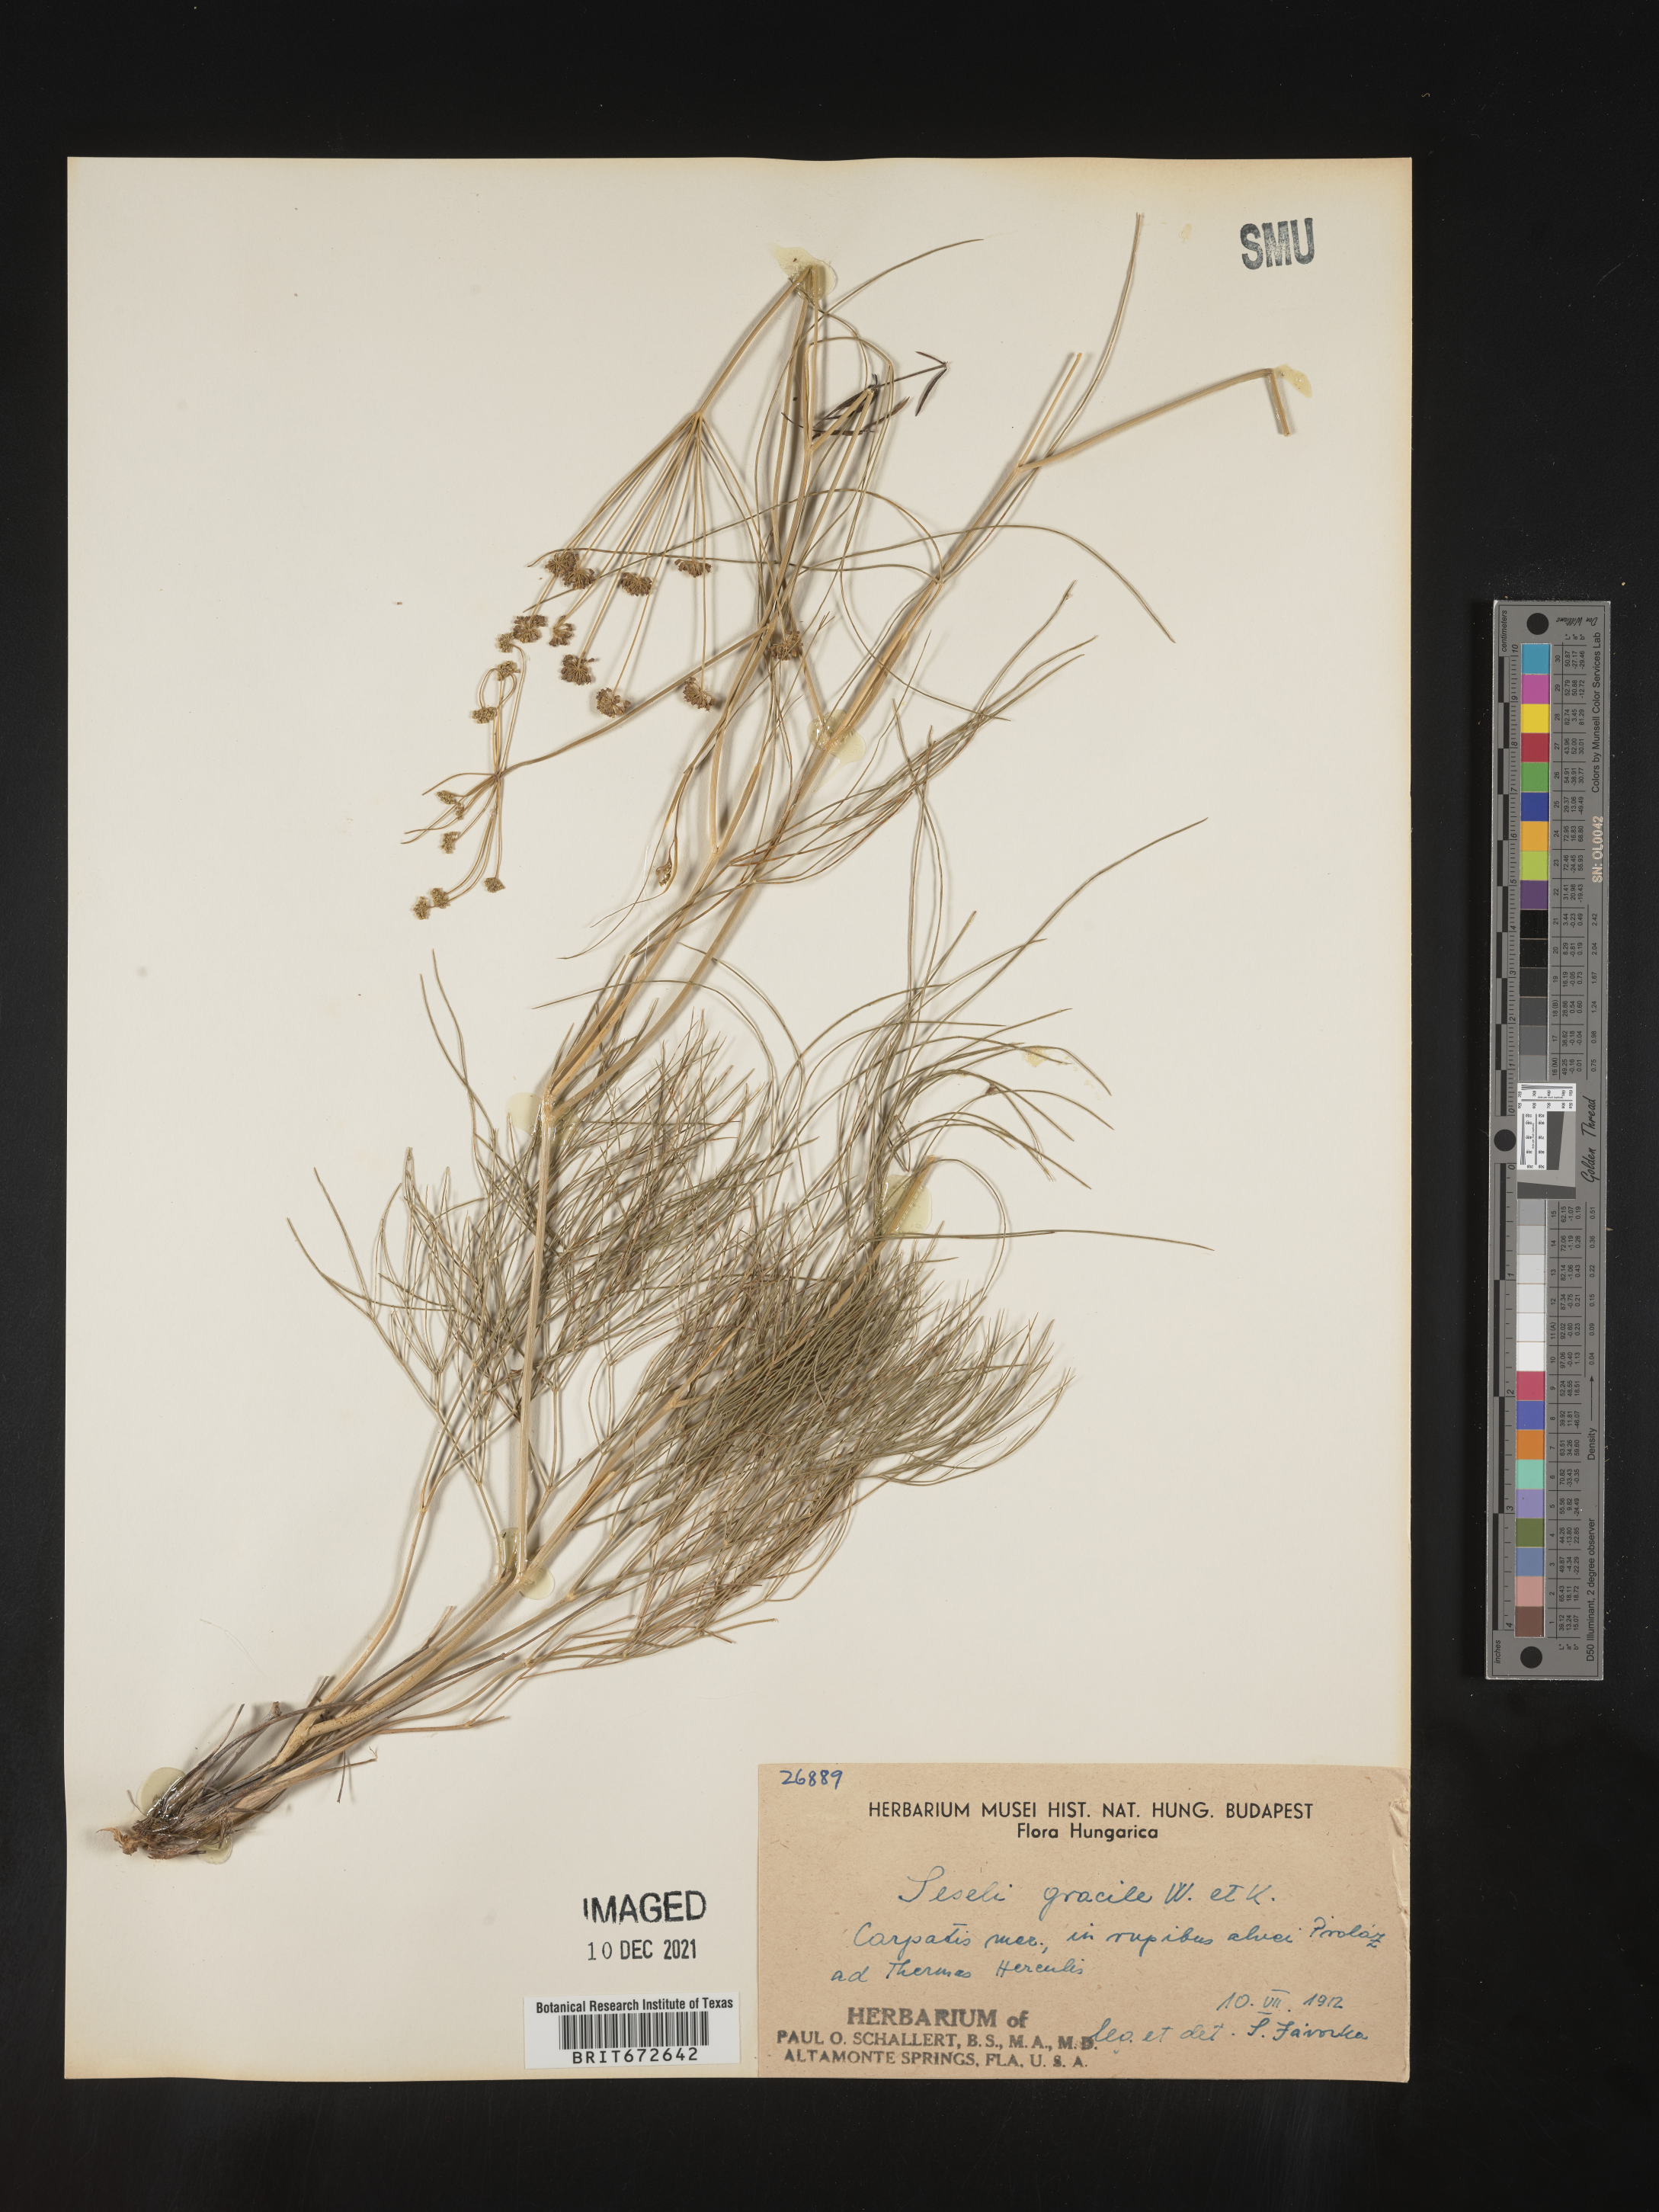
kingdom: Plantae
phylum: Tracheophyta
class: Magnoliopsida
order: Apiales
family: Apiaceae
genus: Seseli
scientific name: Seseli
